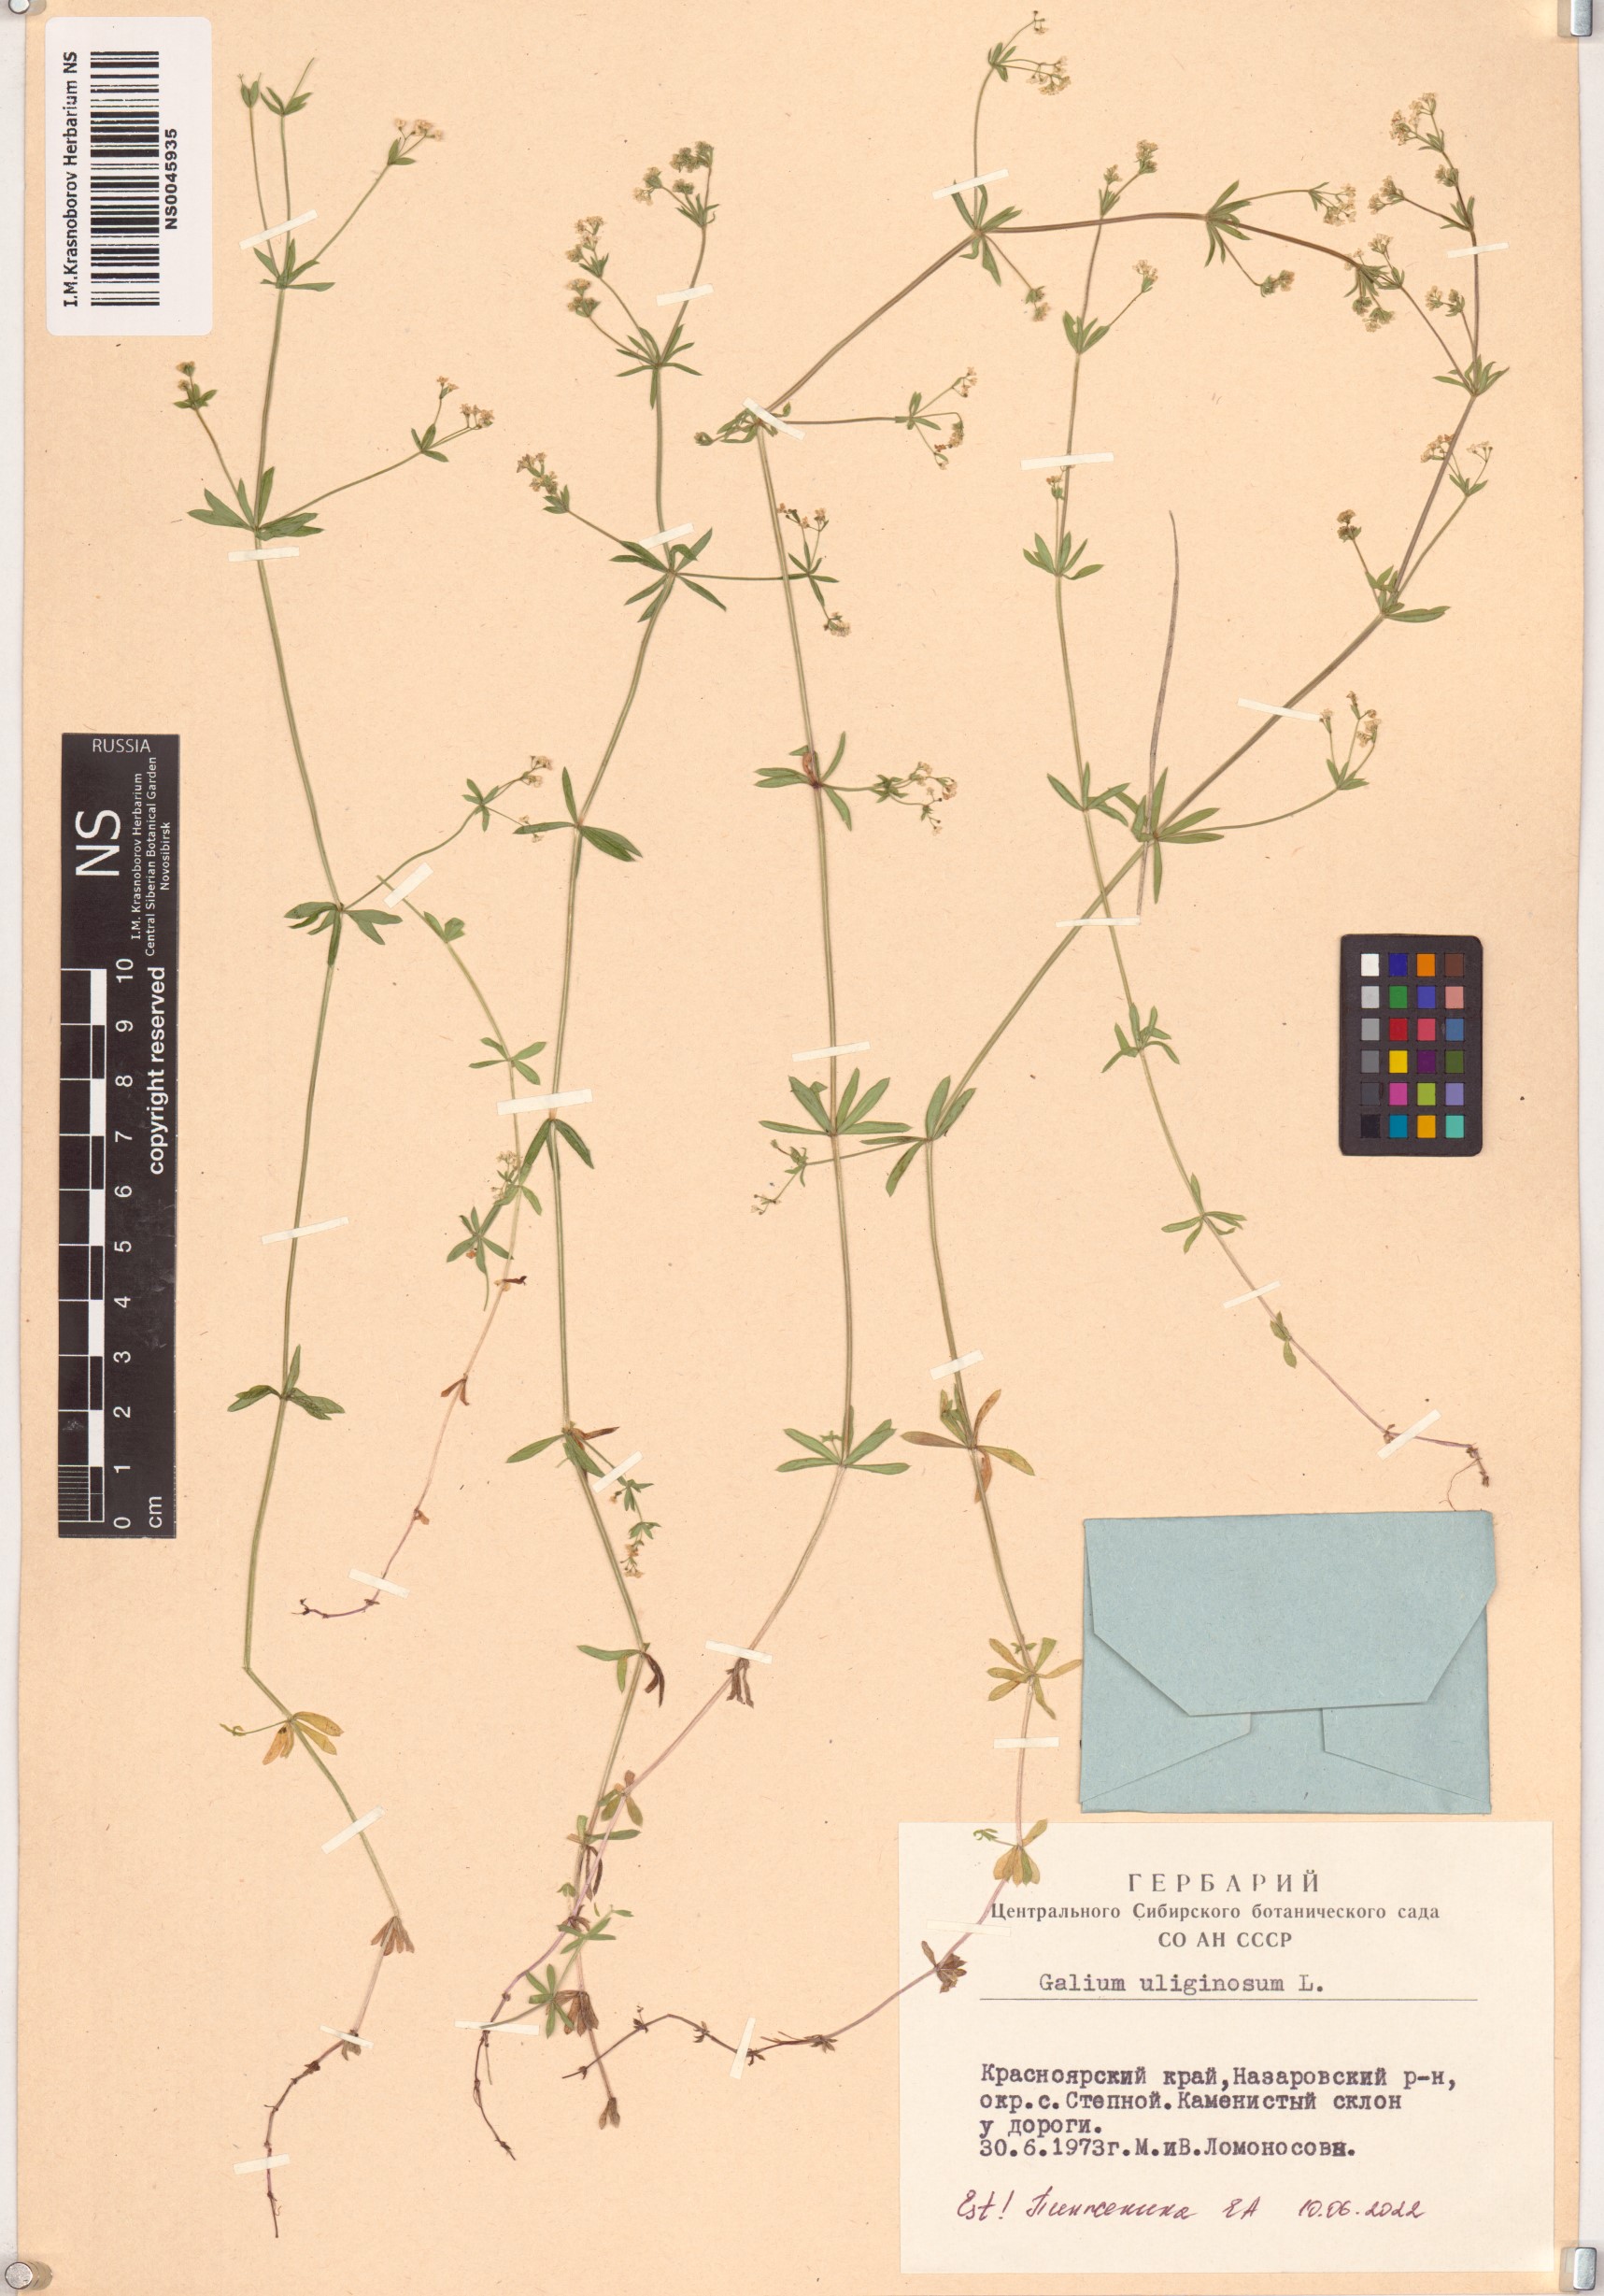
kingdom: Plantae
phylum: Tracheophyta
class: Magnoliopsida
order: Gentianales
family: Rubiaceae
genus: Galium
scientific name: Galium uliginosum
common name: Fen bedstraw
